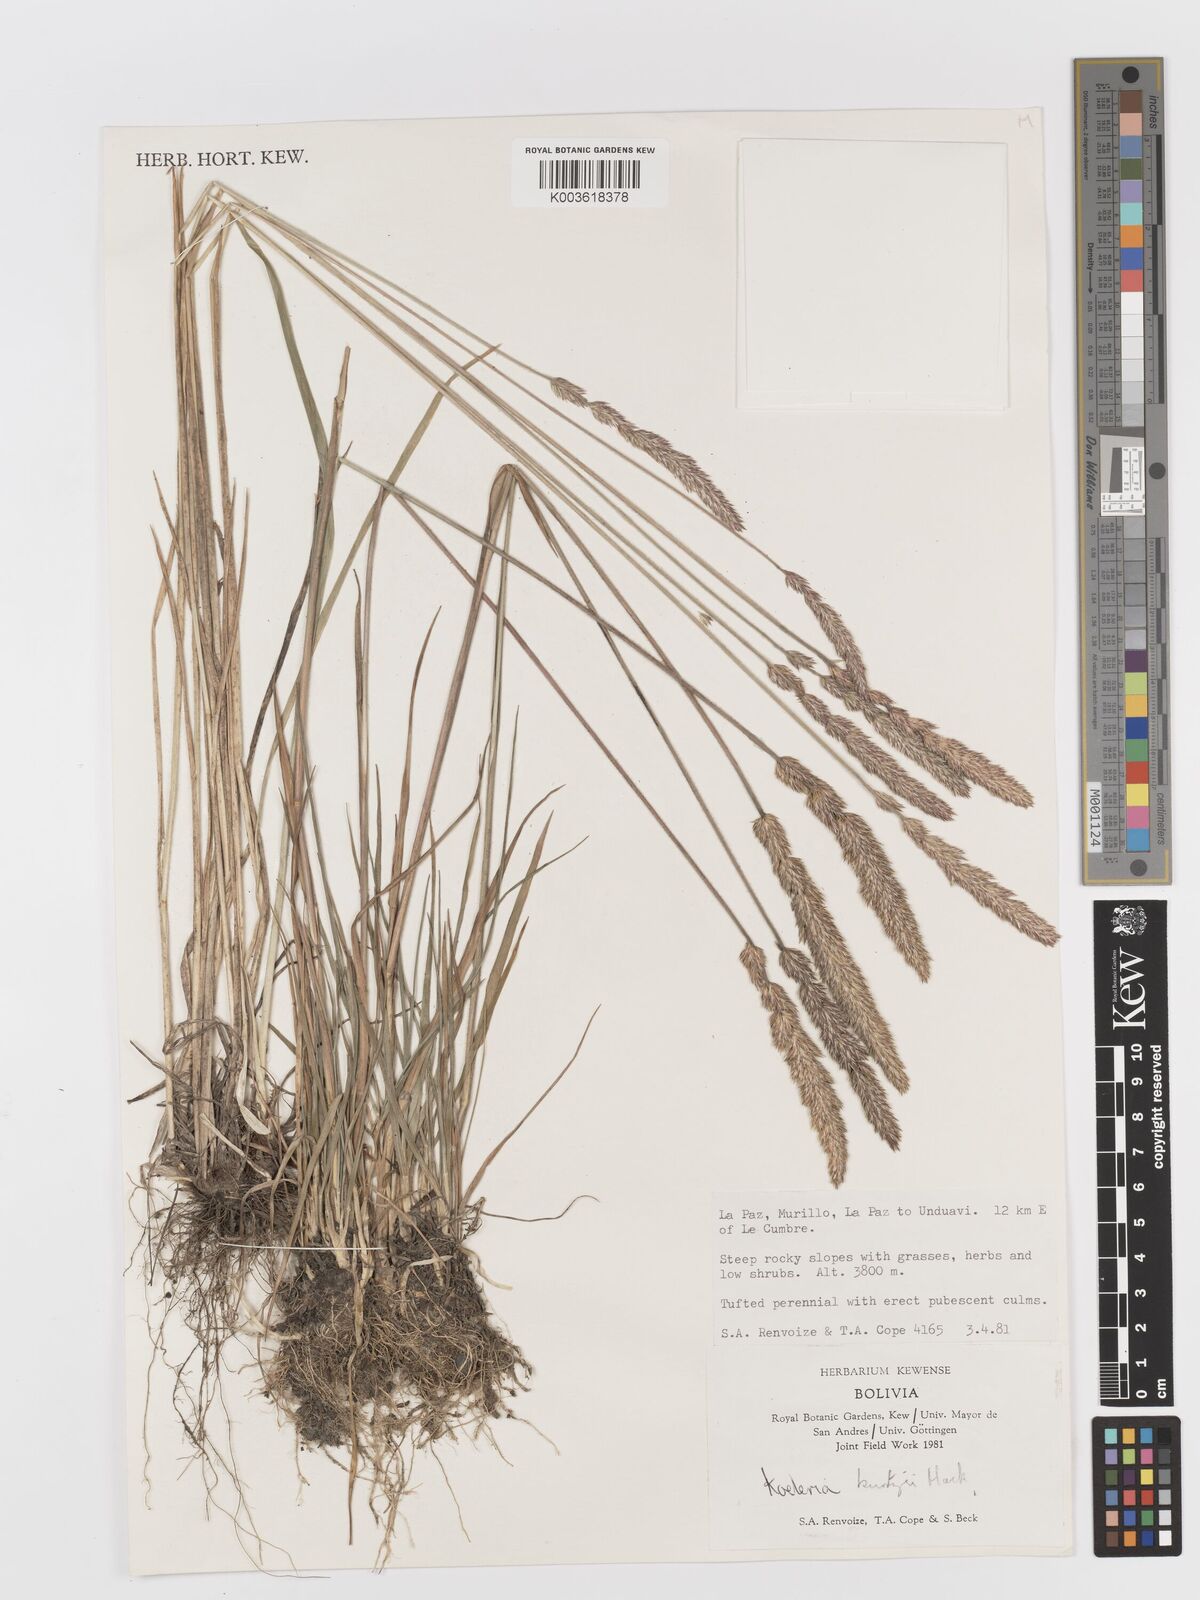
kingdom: Plantae
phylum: Tracheophyta
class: Liliopsida
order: Poales
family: Poaceae
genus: Koeleria
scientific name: Koeleria kurtzii
